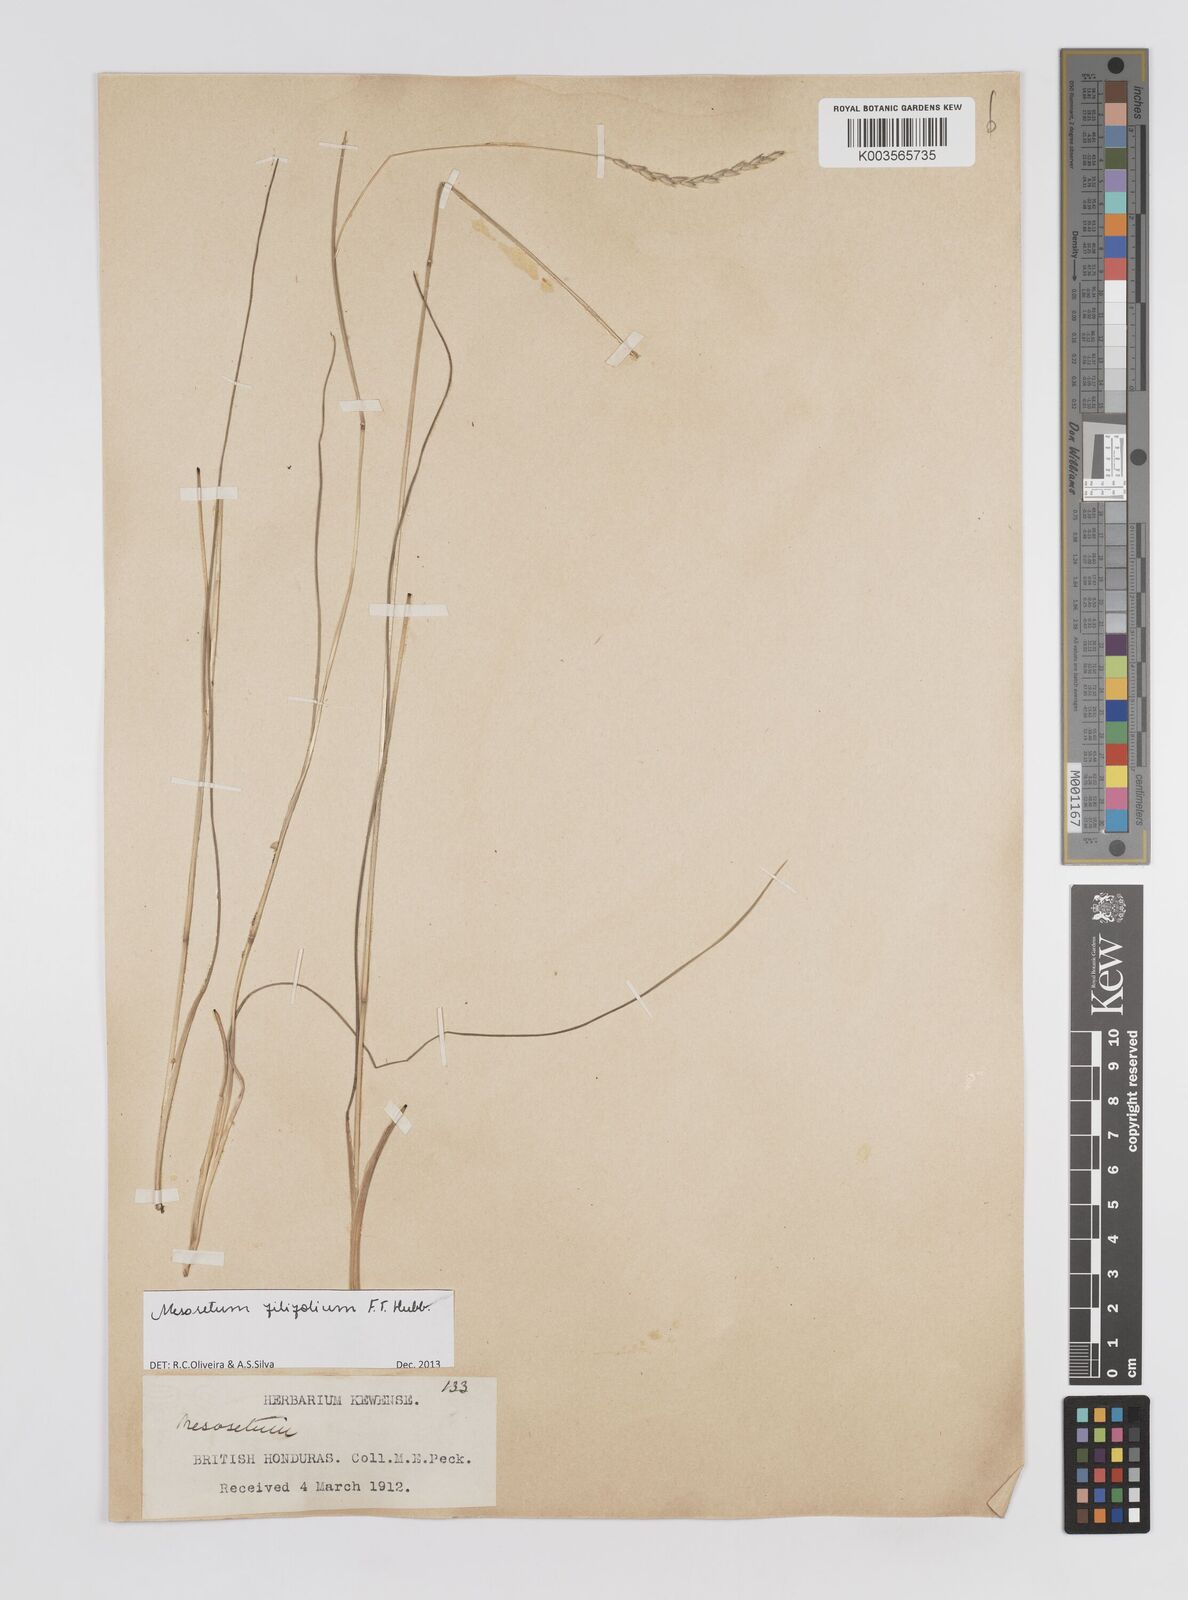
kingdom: Plantae
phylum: Tracheophyta
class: Liliopsida
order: Poales
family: Poaceae
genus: Mesosetum
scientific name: Mesosetum filifolium
